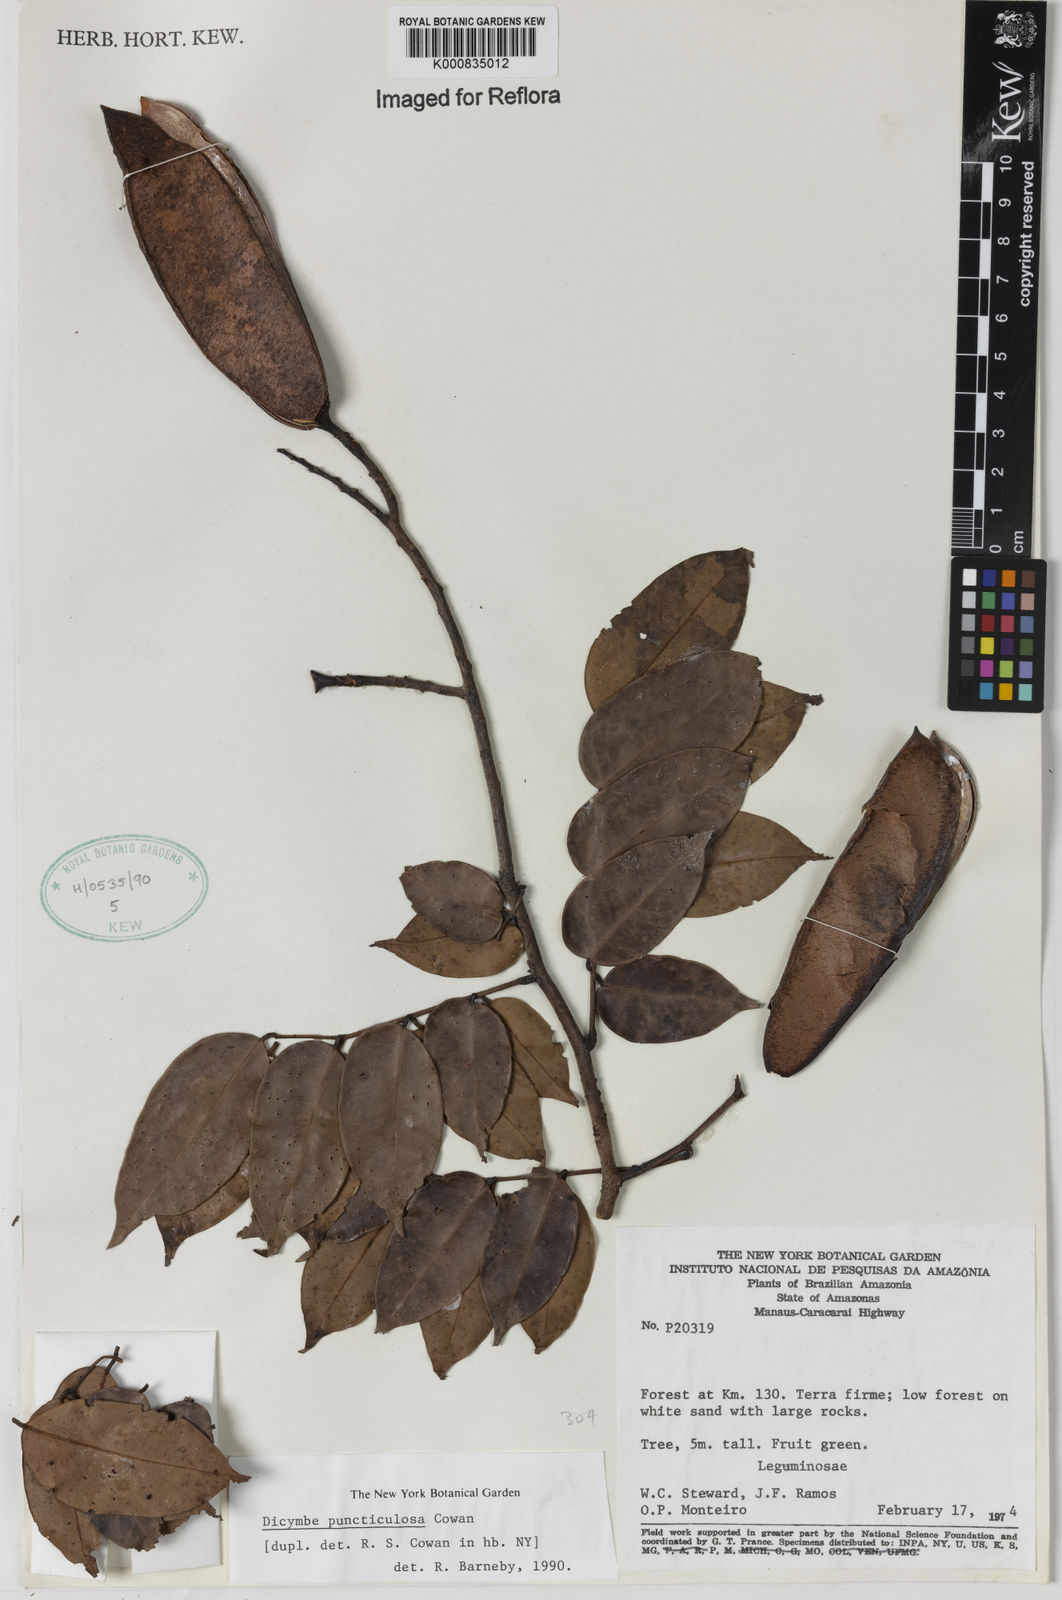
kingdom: Plantae
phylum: Tracheophyta
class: Magnoliopsida
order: Fabales
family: Fabaceae
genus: Dicymbe
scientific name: Dicymbe puncticulosa
